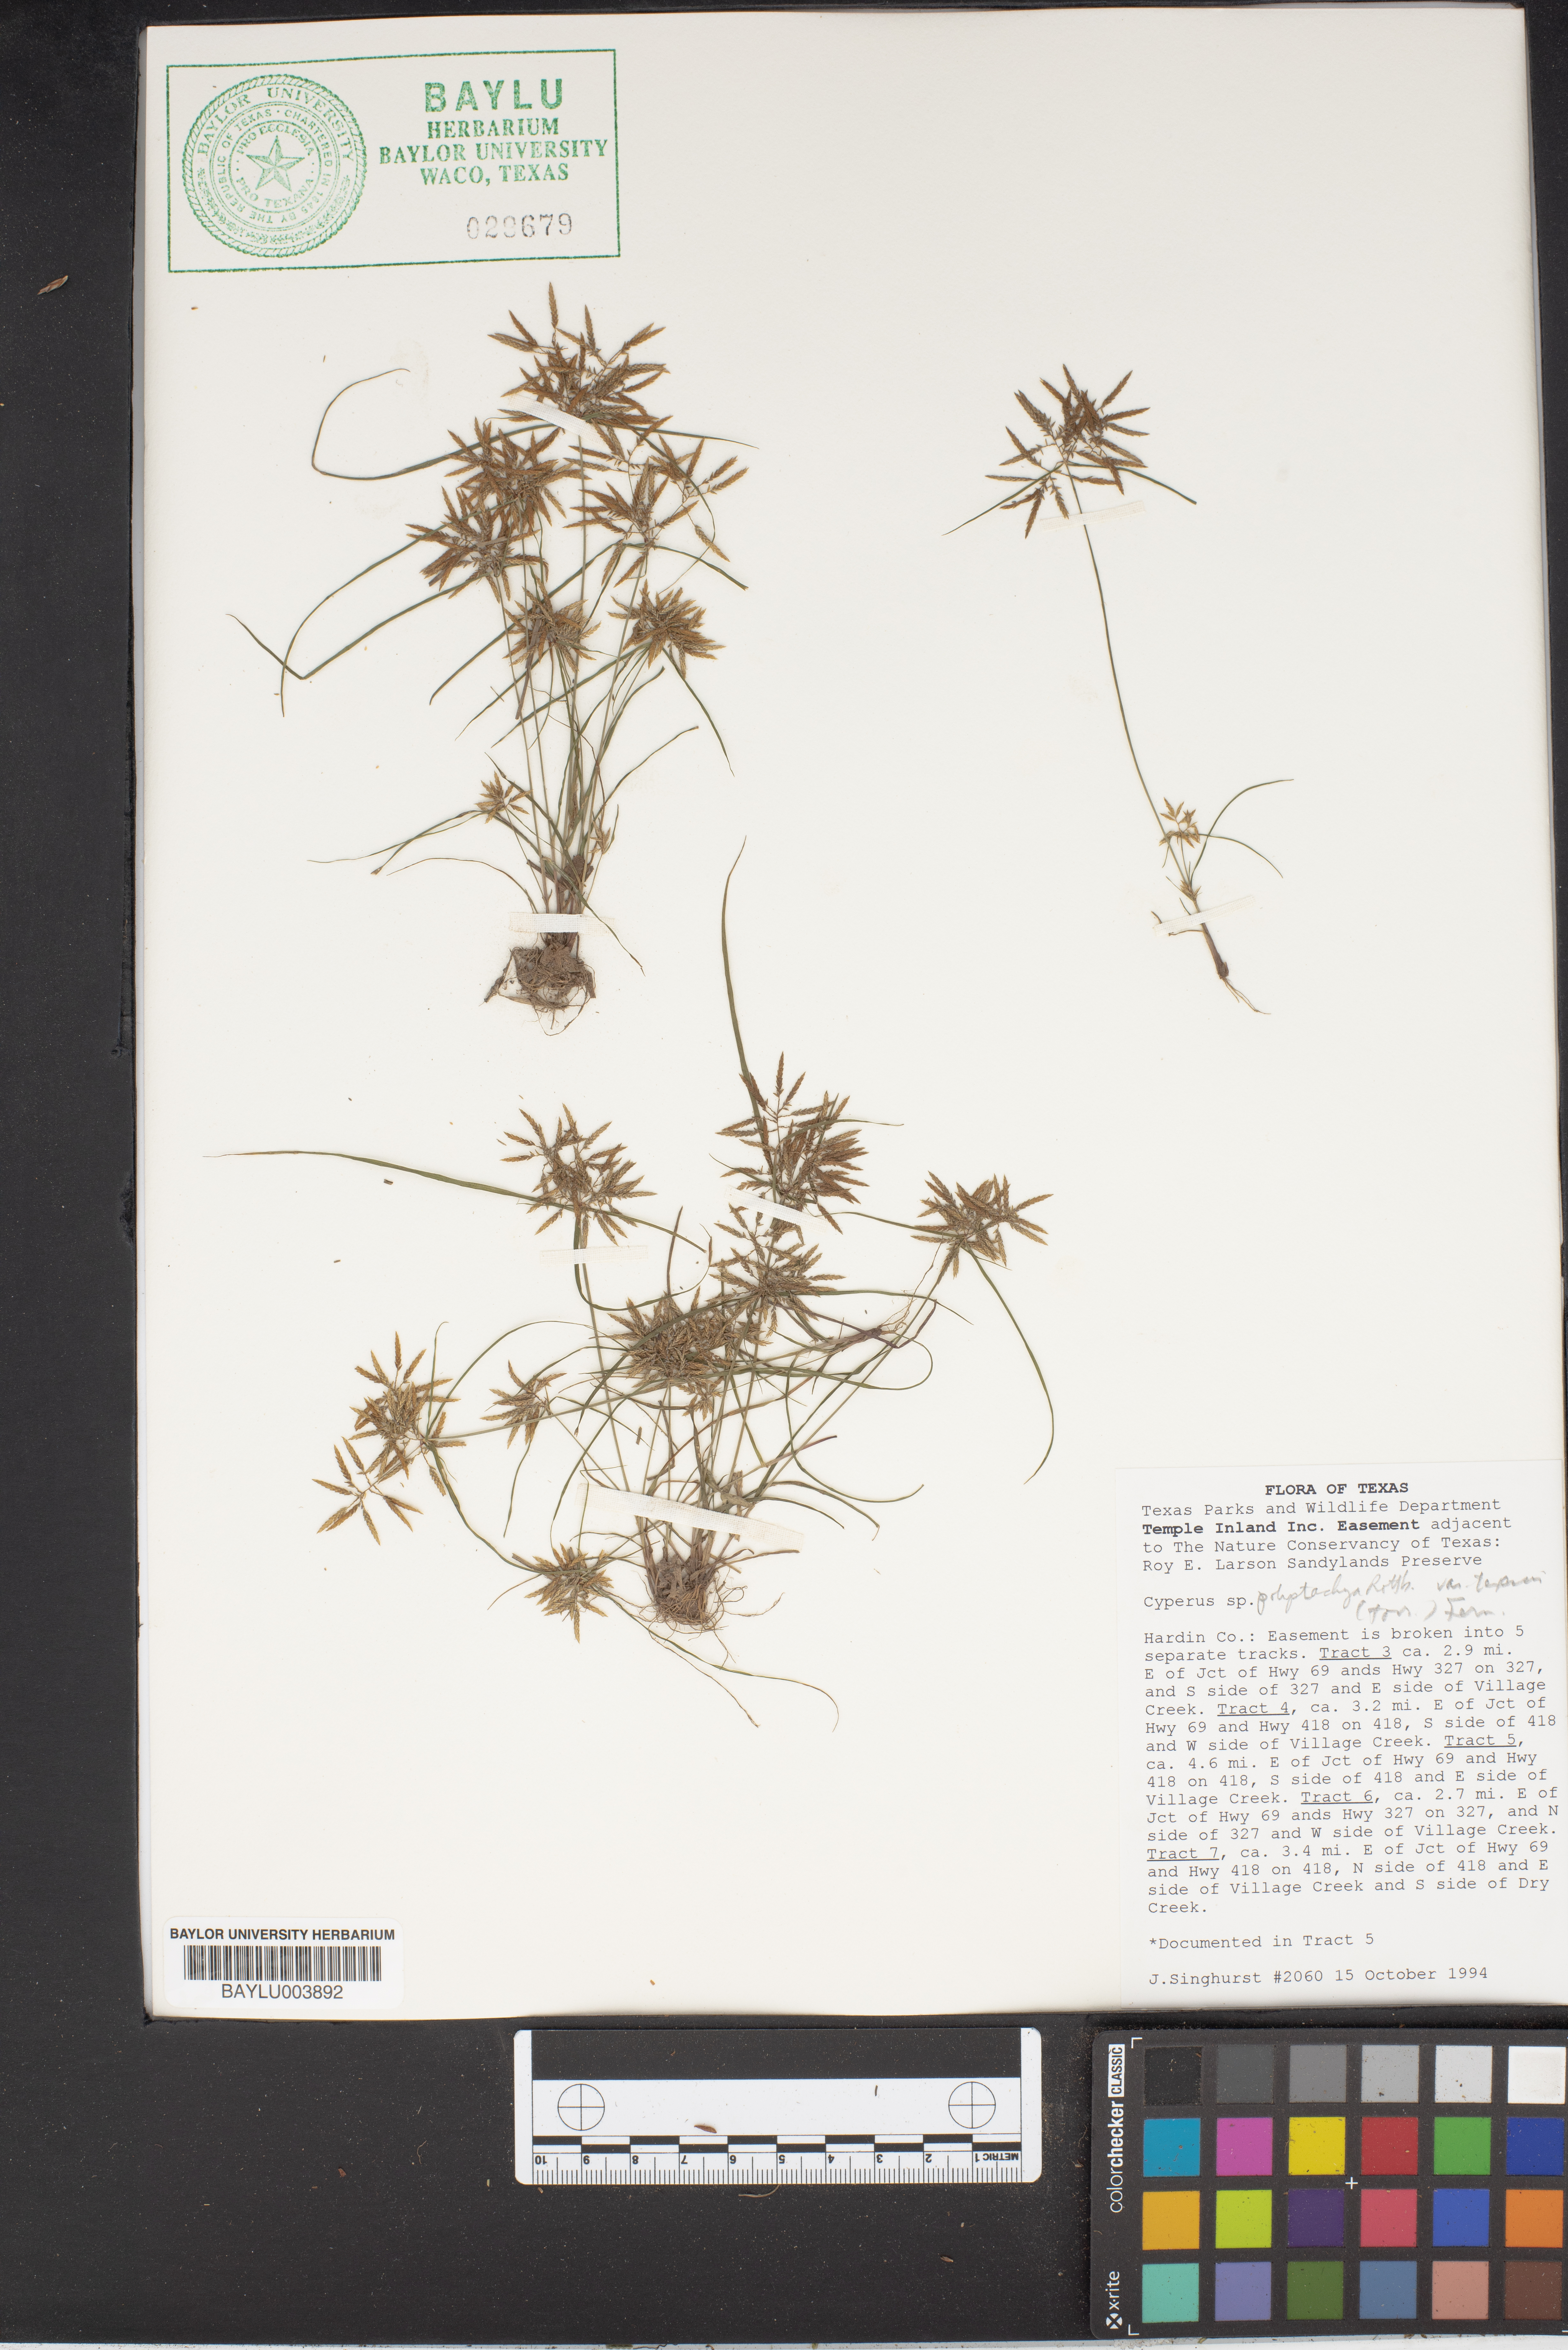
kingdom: Plantae
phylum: Tracheophyta
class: Liliopsida
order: Poales
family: Cyperaceae
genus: Cyperus
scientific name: Cyperus polystachyos
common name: Bunchy flat sedge
